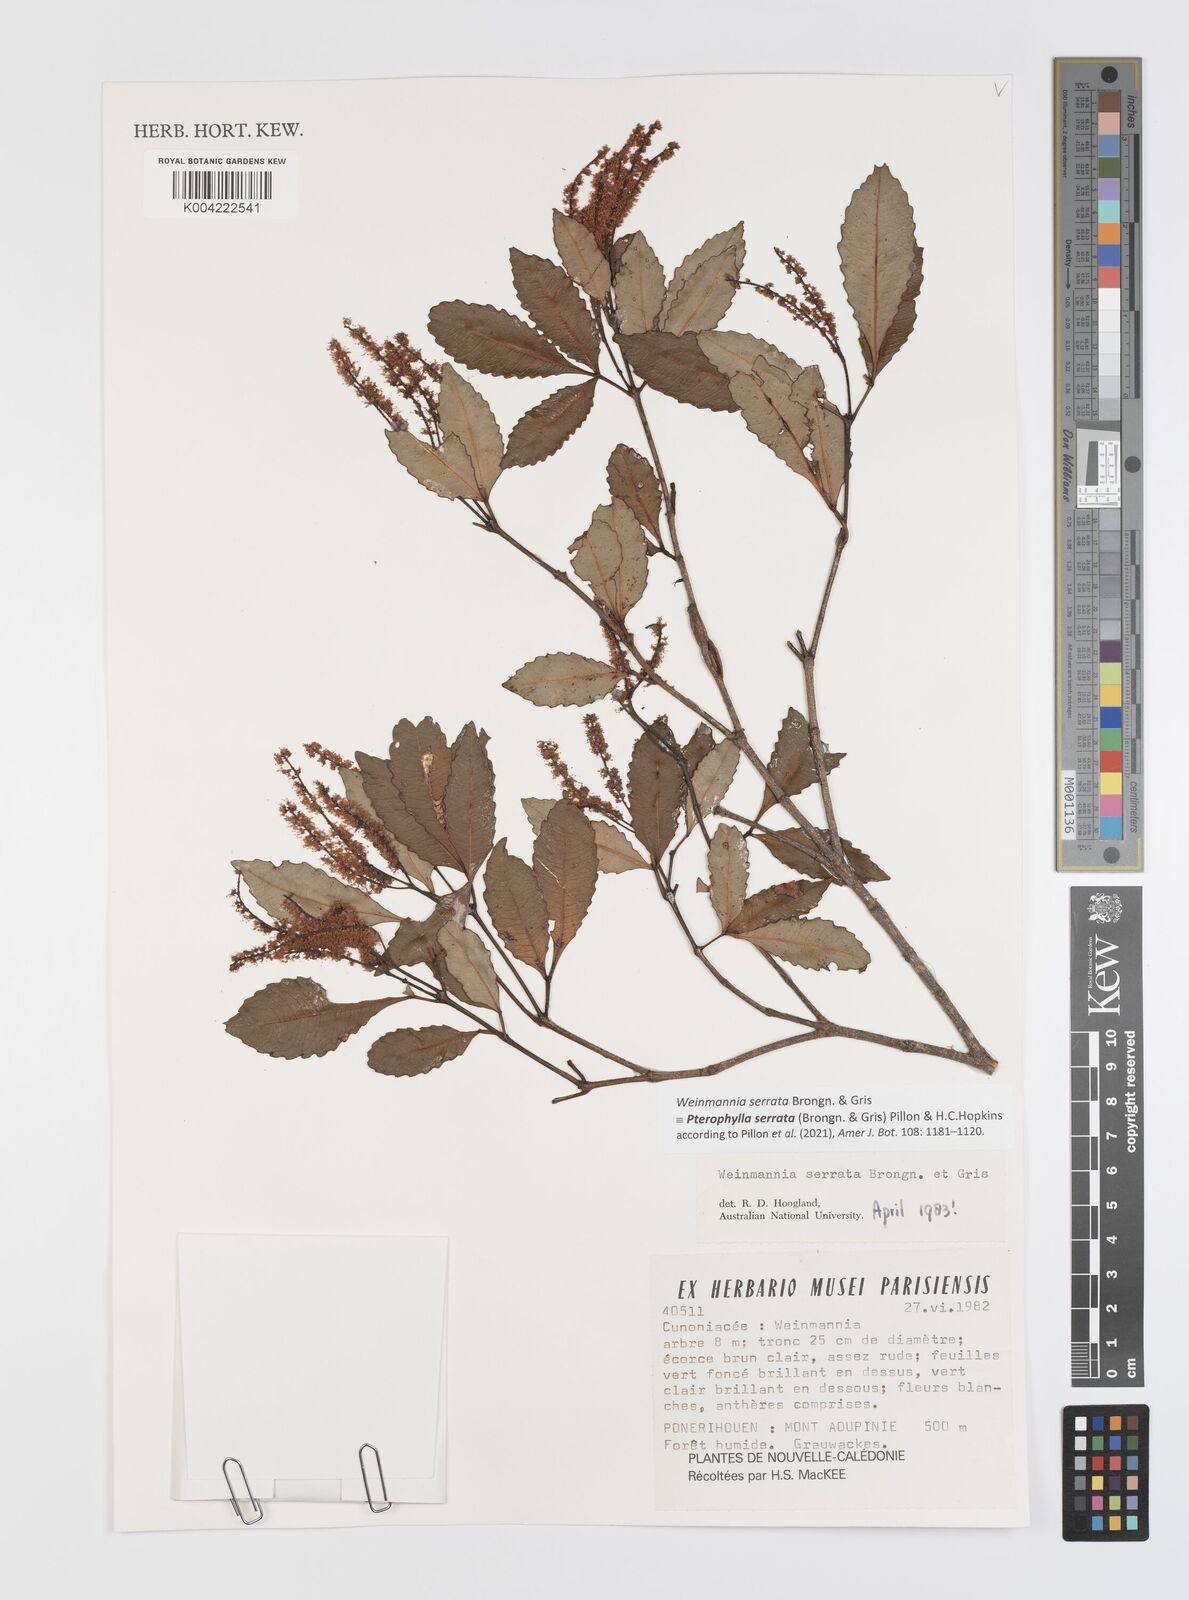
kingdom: Plantae
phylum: Tracheophyta
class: Magnoliopsida
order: Oxalidales
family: Cunoniaceae
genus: Pterophylla
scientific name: Pterophylla serrata
